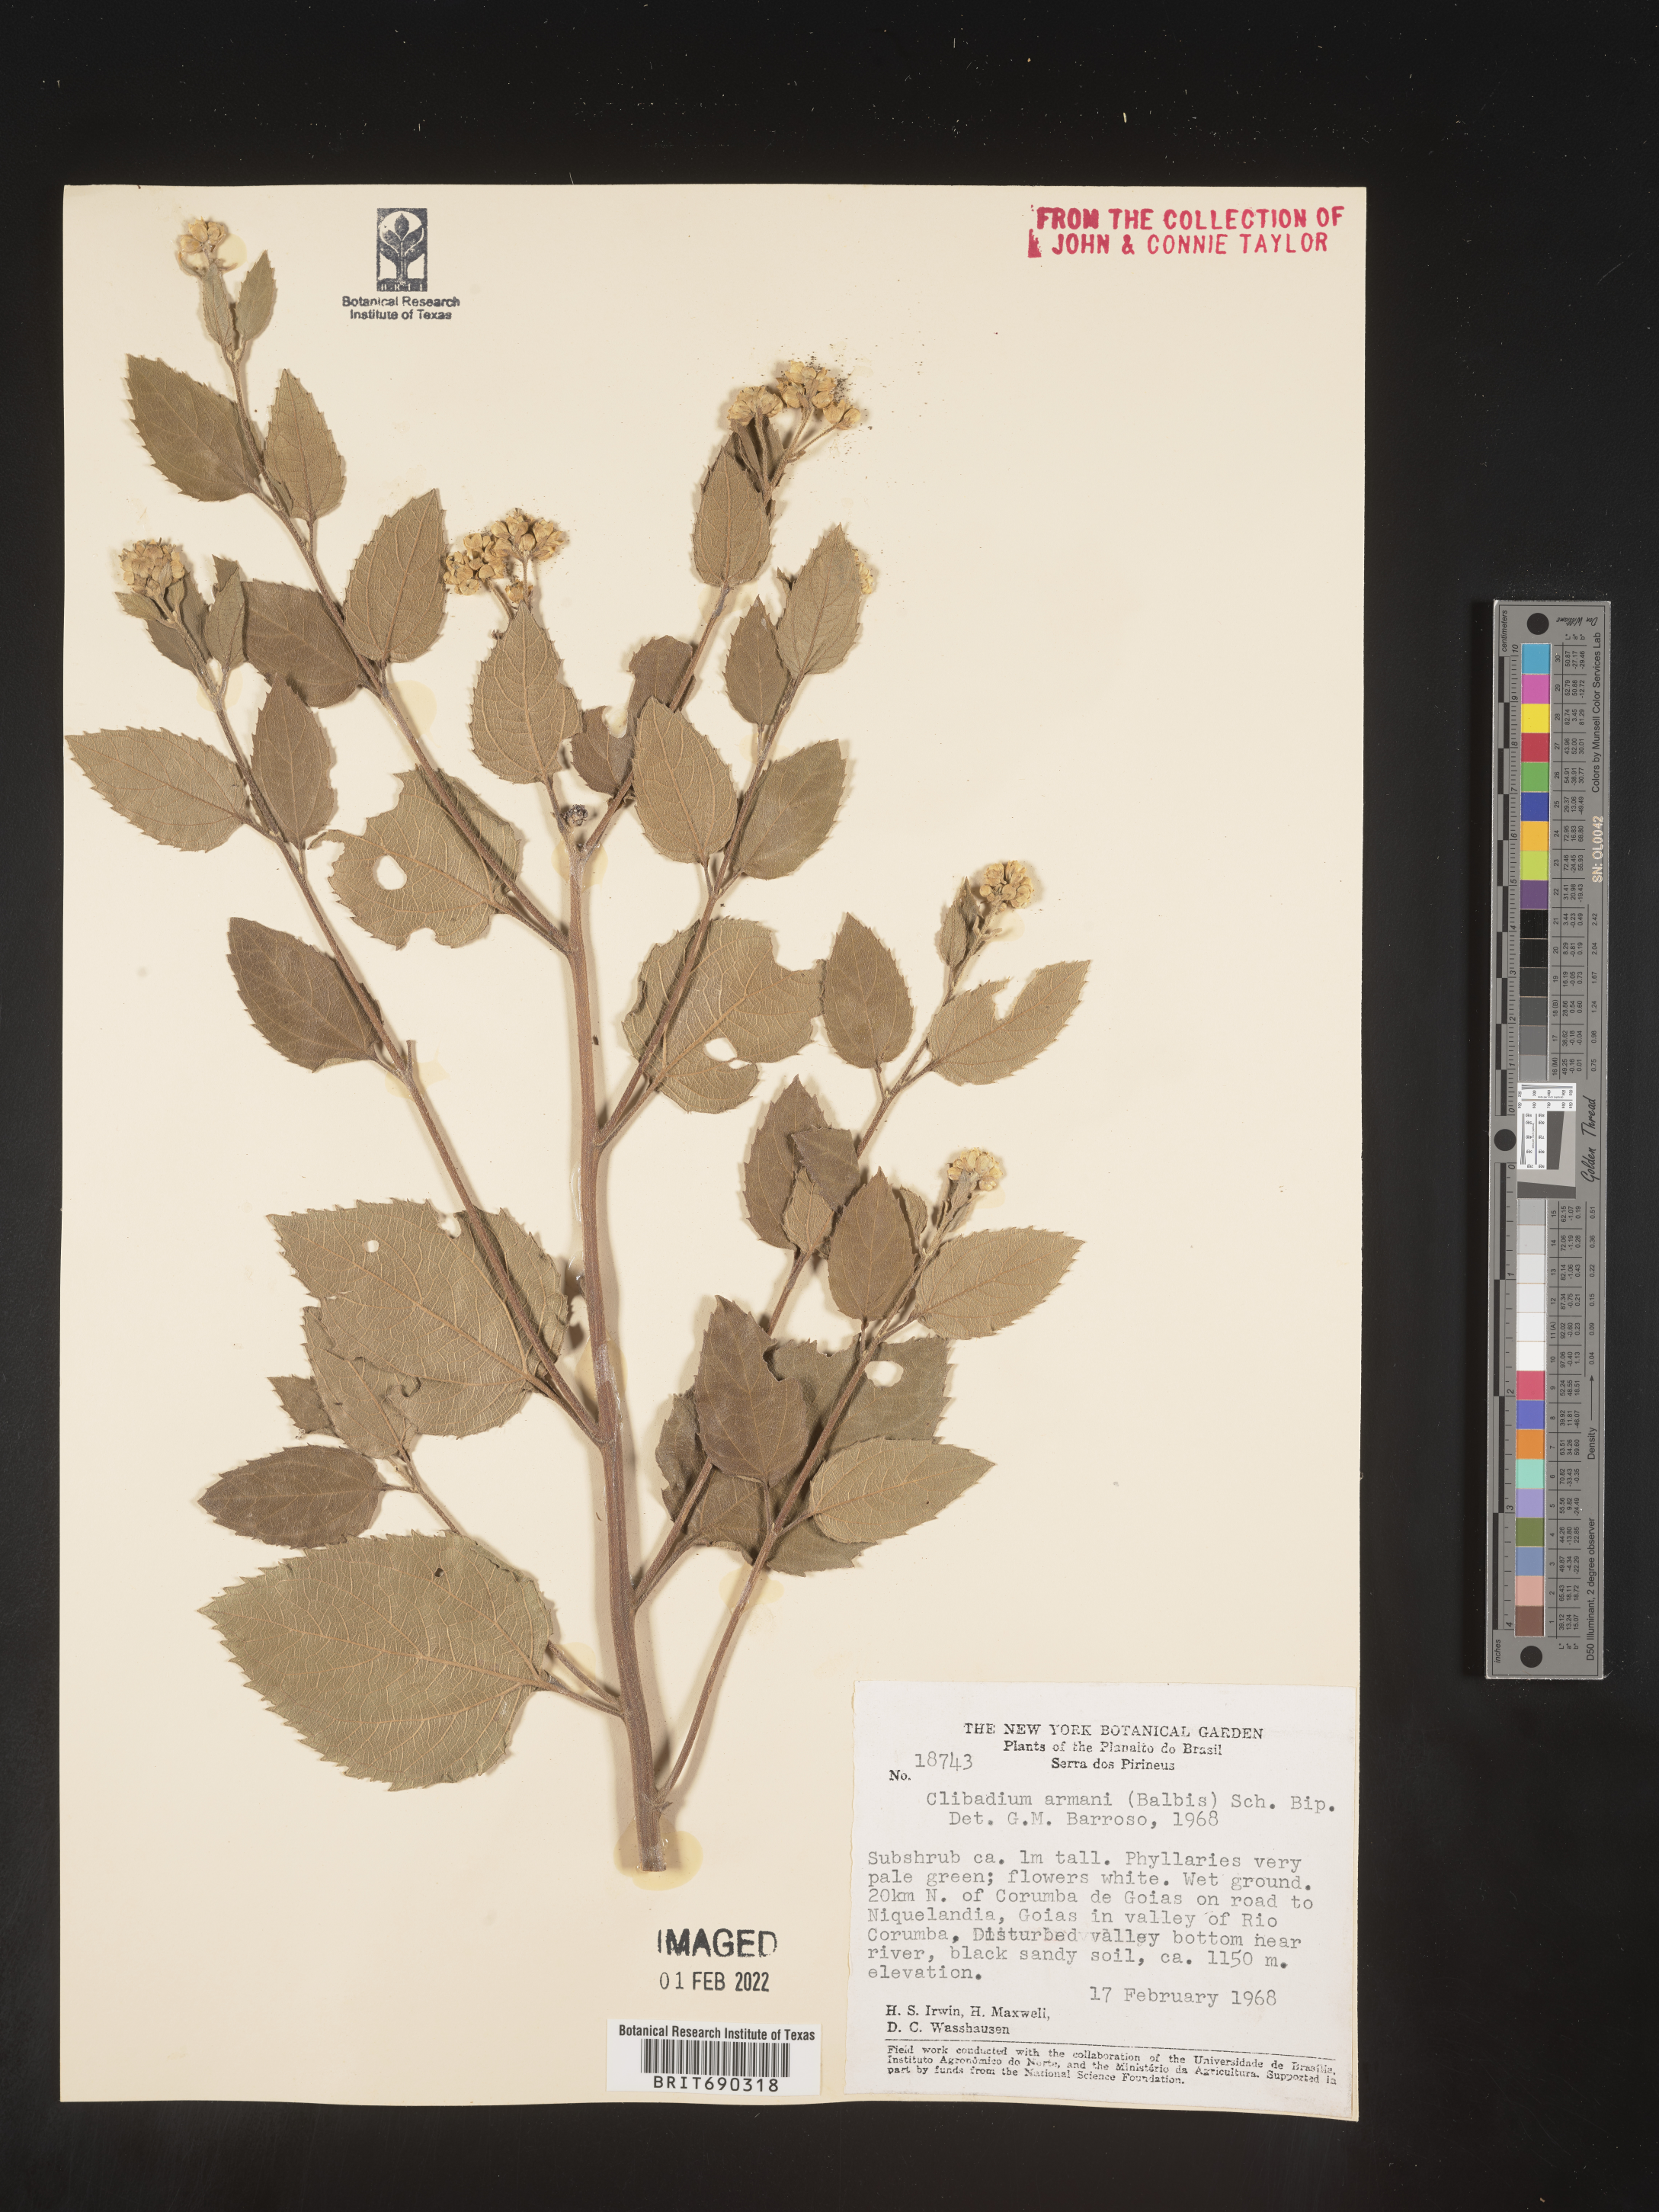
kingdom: Plantae
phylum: Tracheophyta
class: Magnoliopsida
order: Asterales
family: Asteraceae
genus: Clibadium
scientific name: Clibadium
